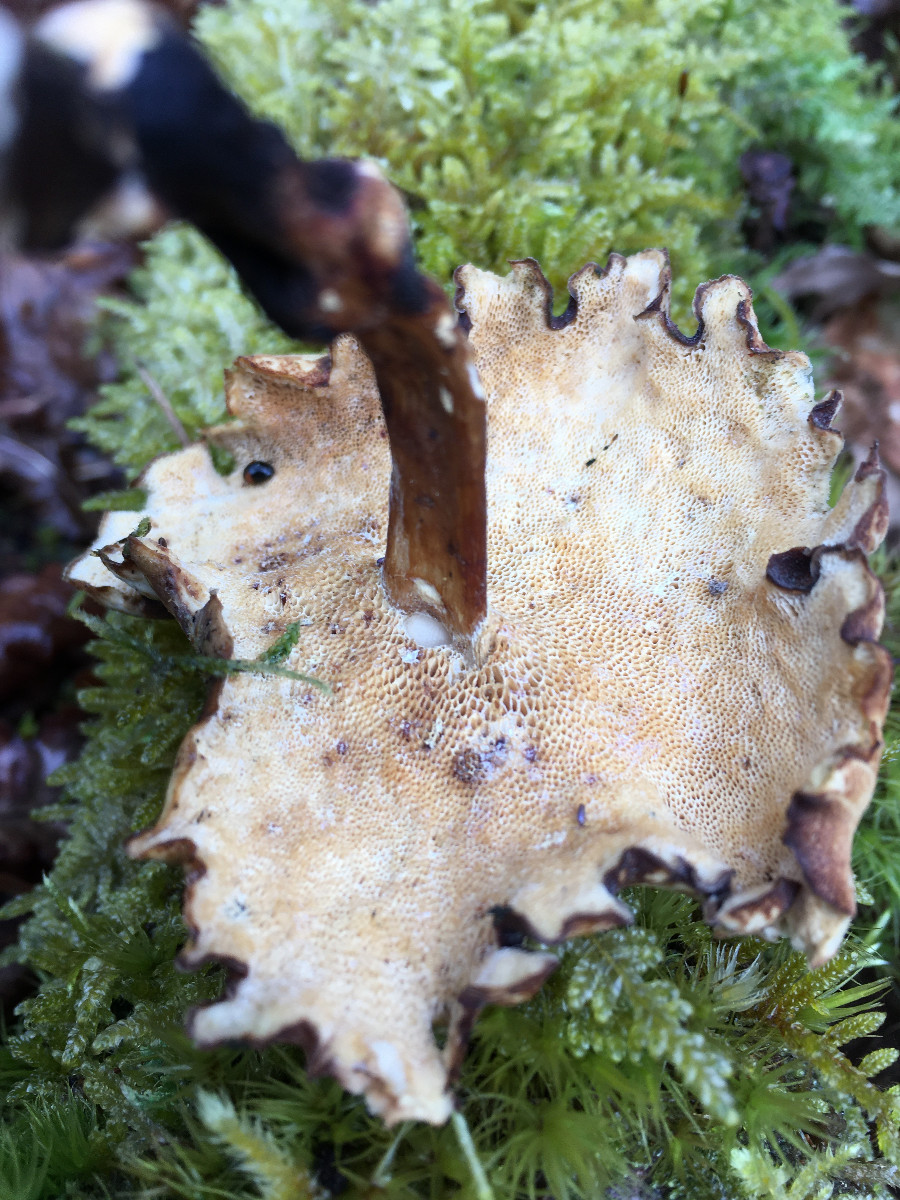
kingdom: Fungi
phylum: Basidiomycota
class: Agaricomycetes
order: Polyporales
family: Polyporaceae
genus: Lentinus
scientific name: Lentinus
